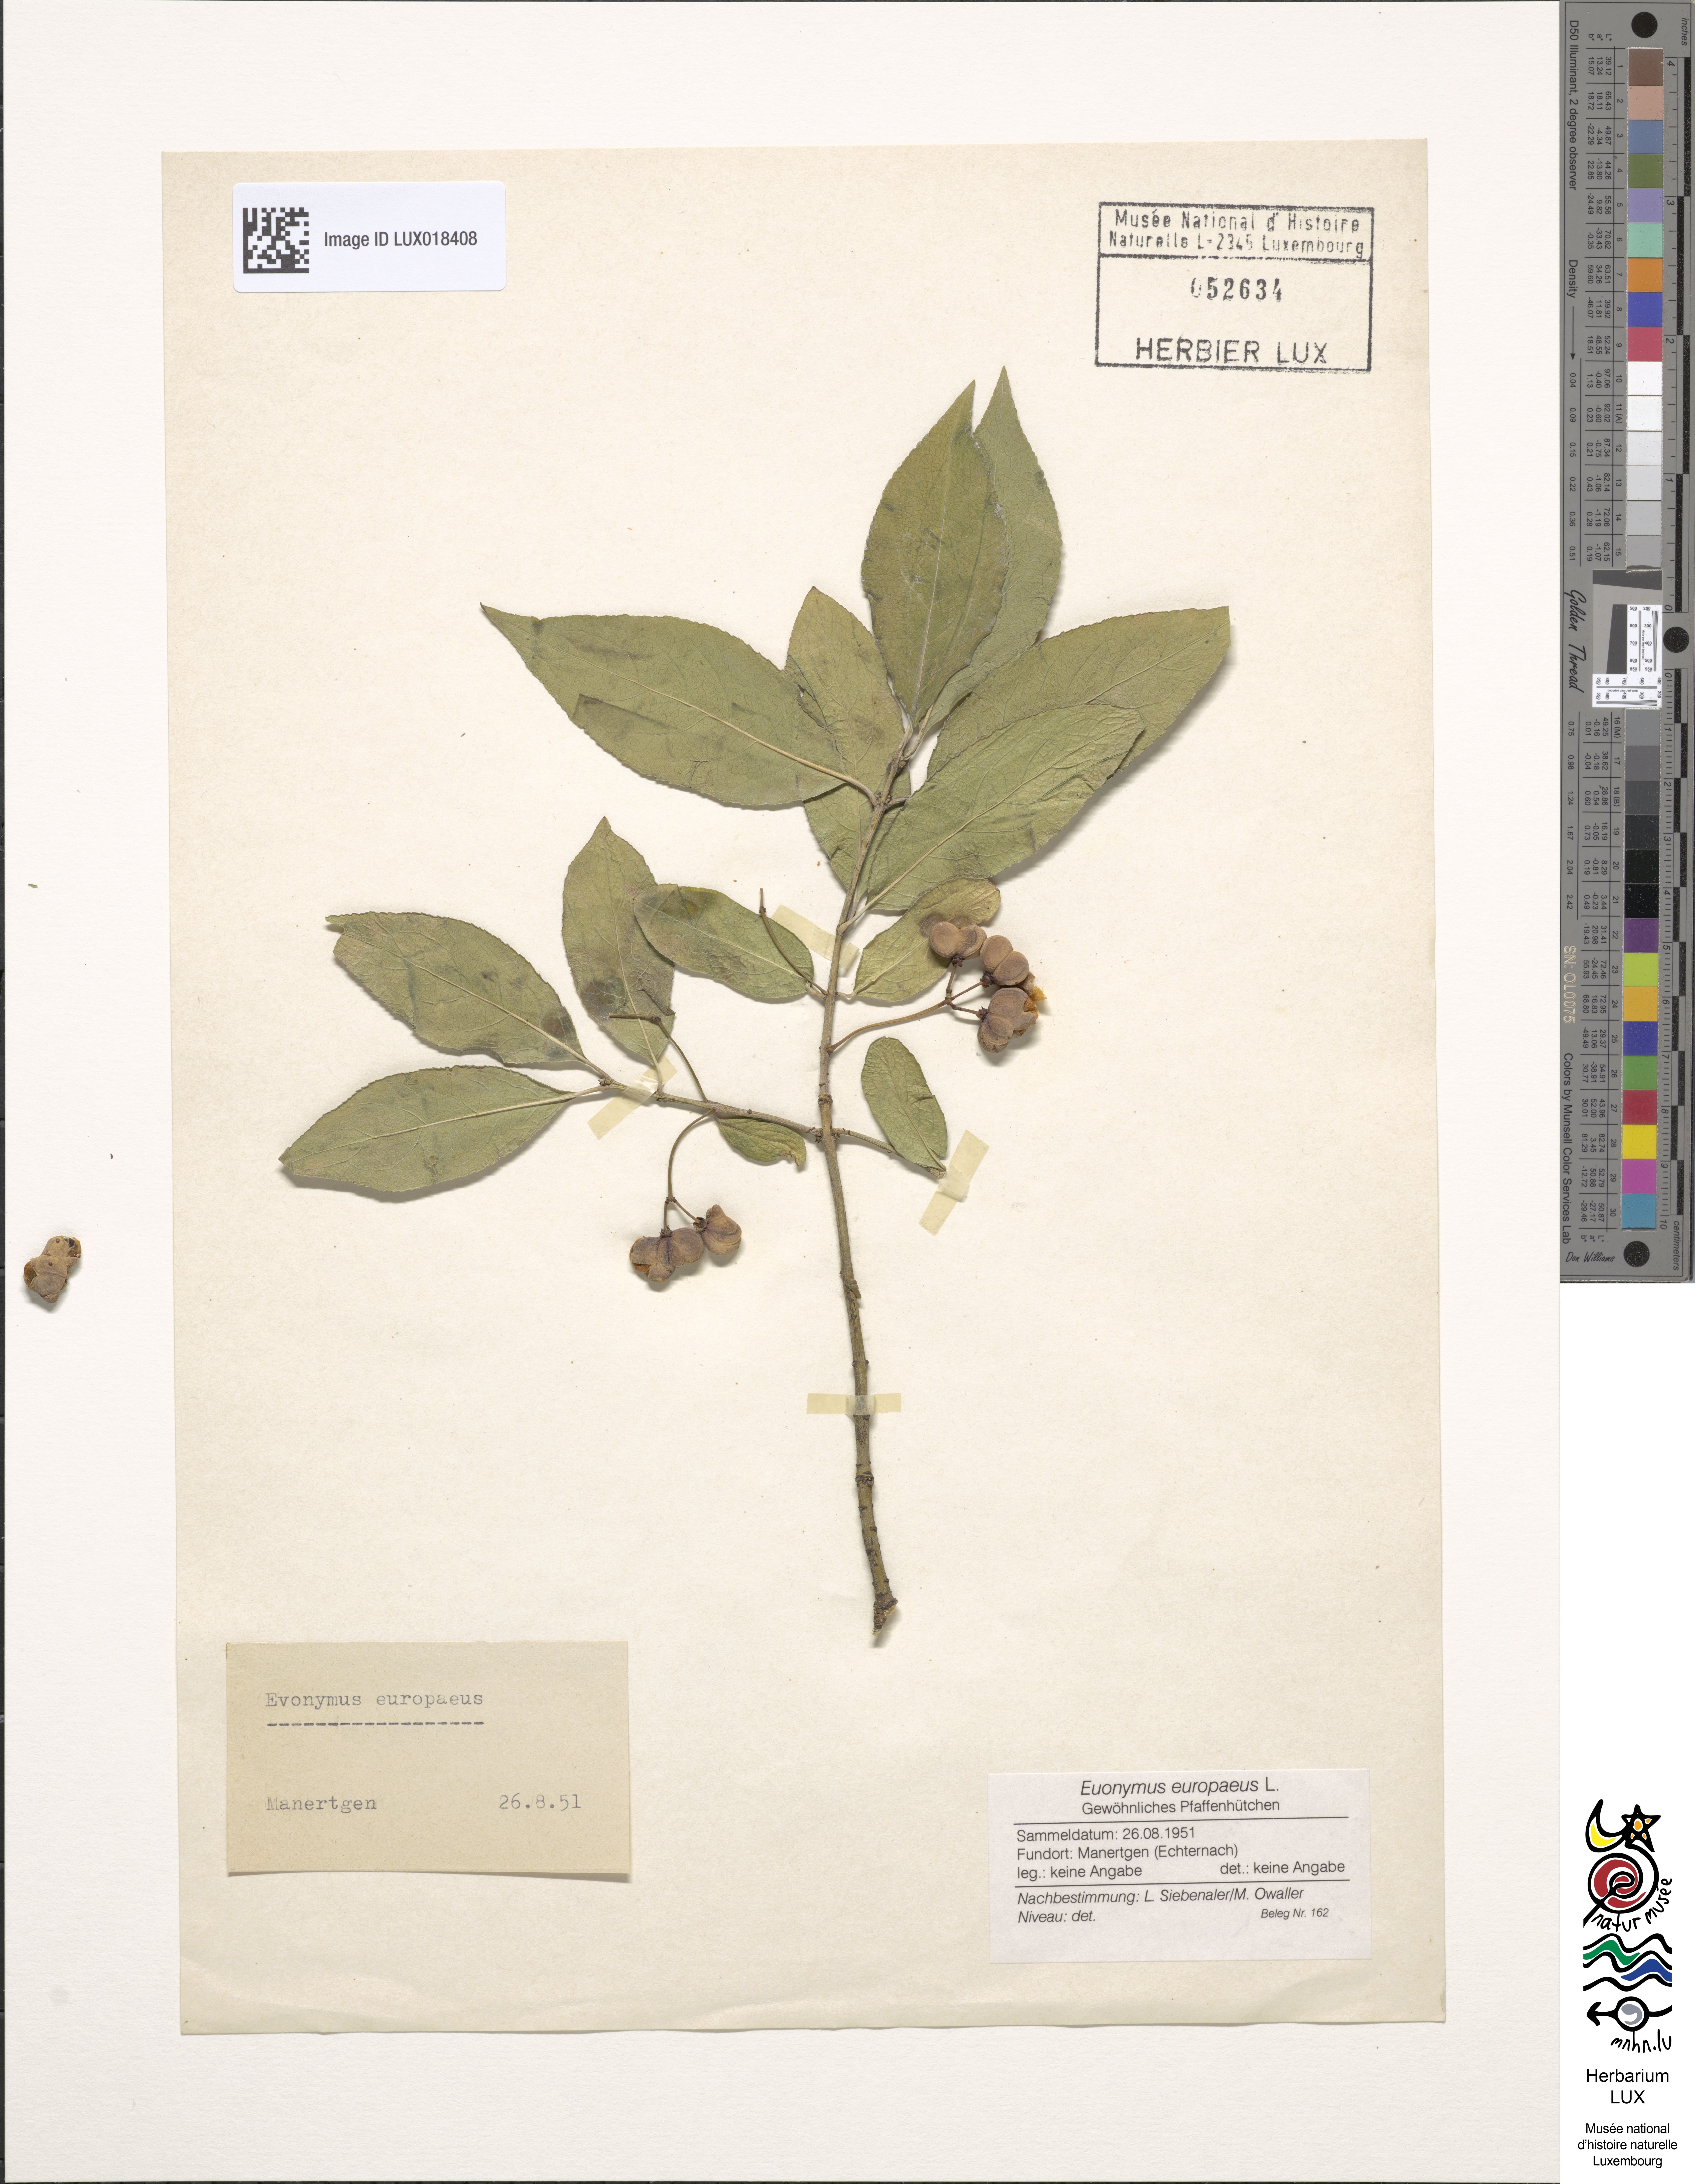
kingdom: Plantae
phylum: Tracheophyta
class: Magnoliopsida
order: Celastrales
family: Celastraceae
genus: Euonymus
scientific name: Euonymus europaeus
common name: Spindle
